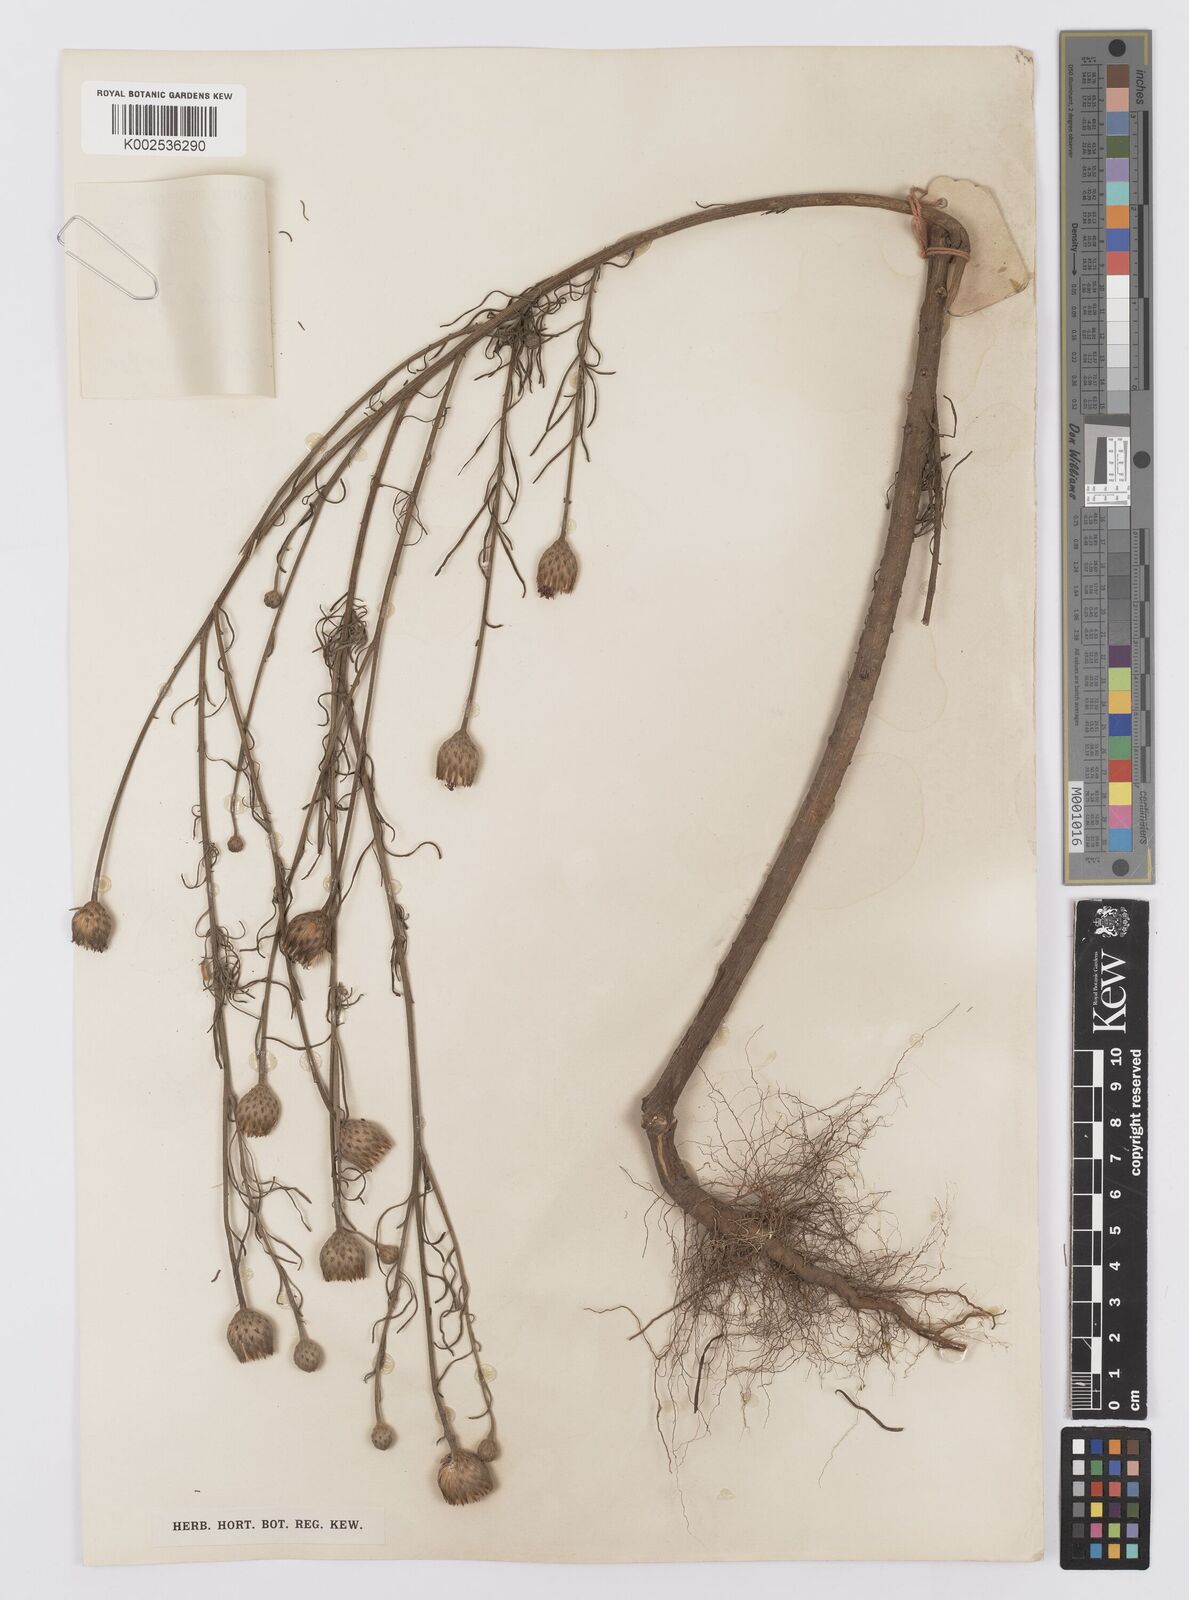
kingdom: Plantae
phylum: Tracheophyta
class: Magnoliopsida
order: Asterales
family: Asteraceae
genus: Crystallopollen
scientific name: Crystallopollen serratuloides
